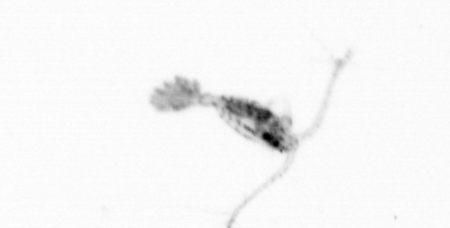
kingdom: Animalia
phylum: Arthropoda
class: Copepoda
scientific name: Copepoda
